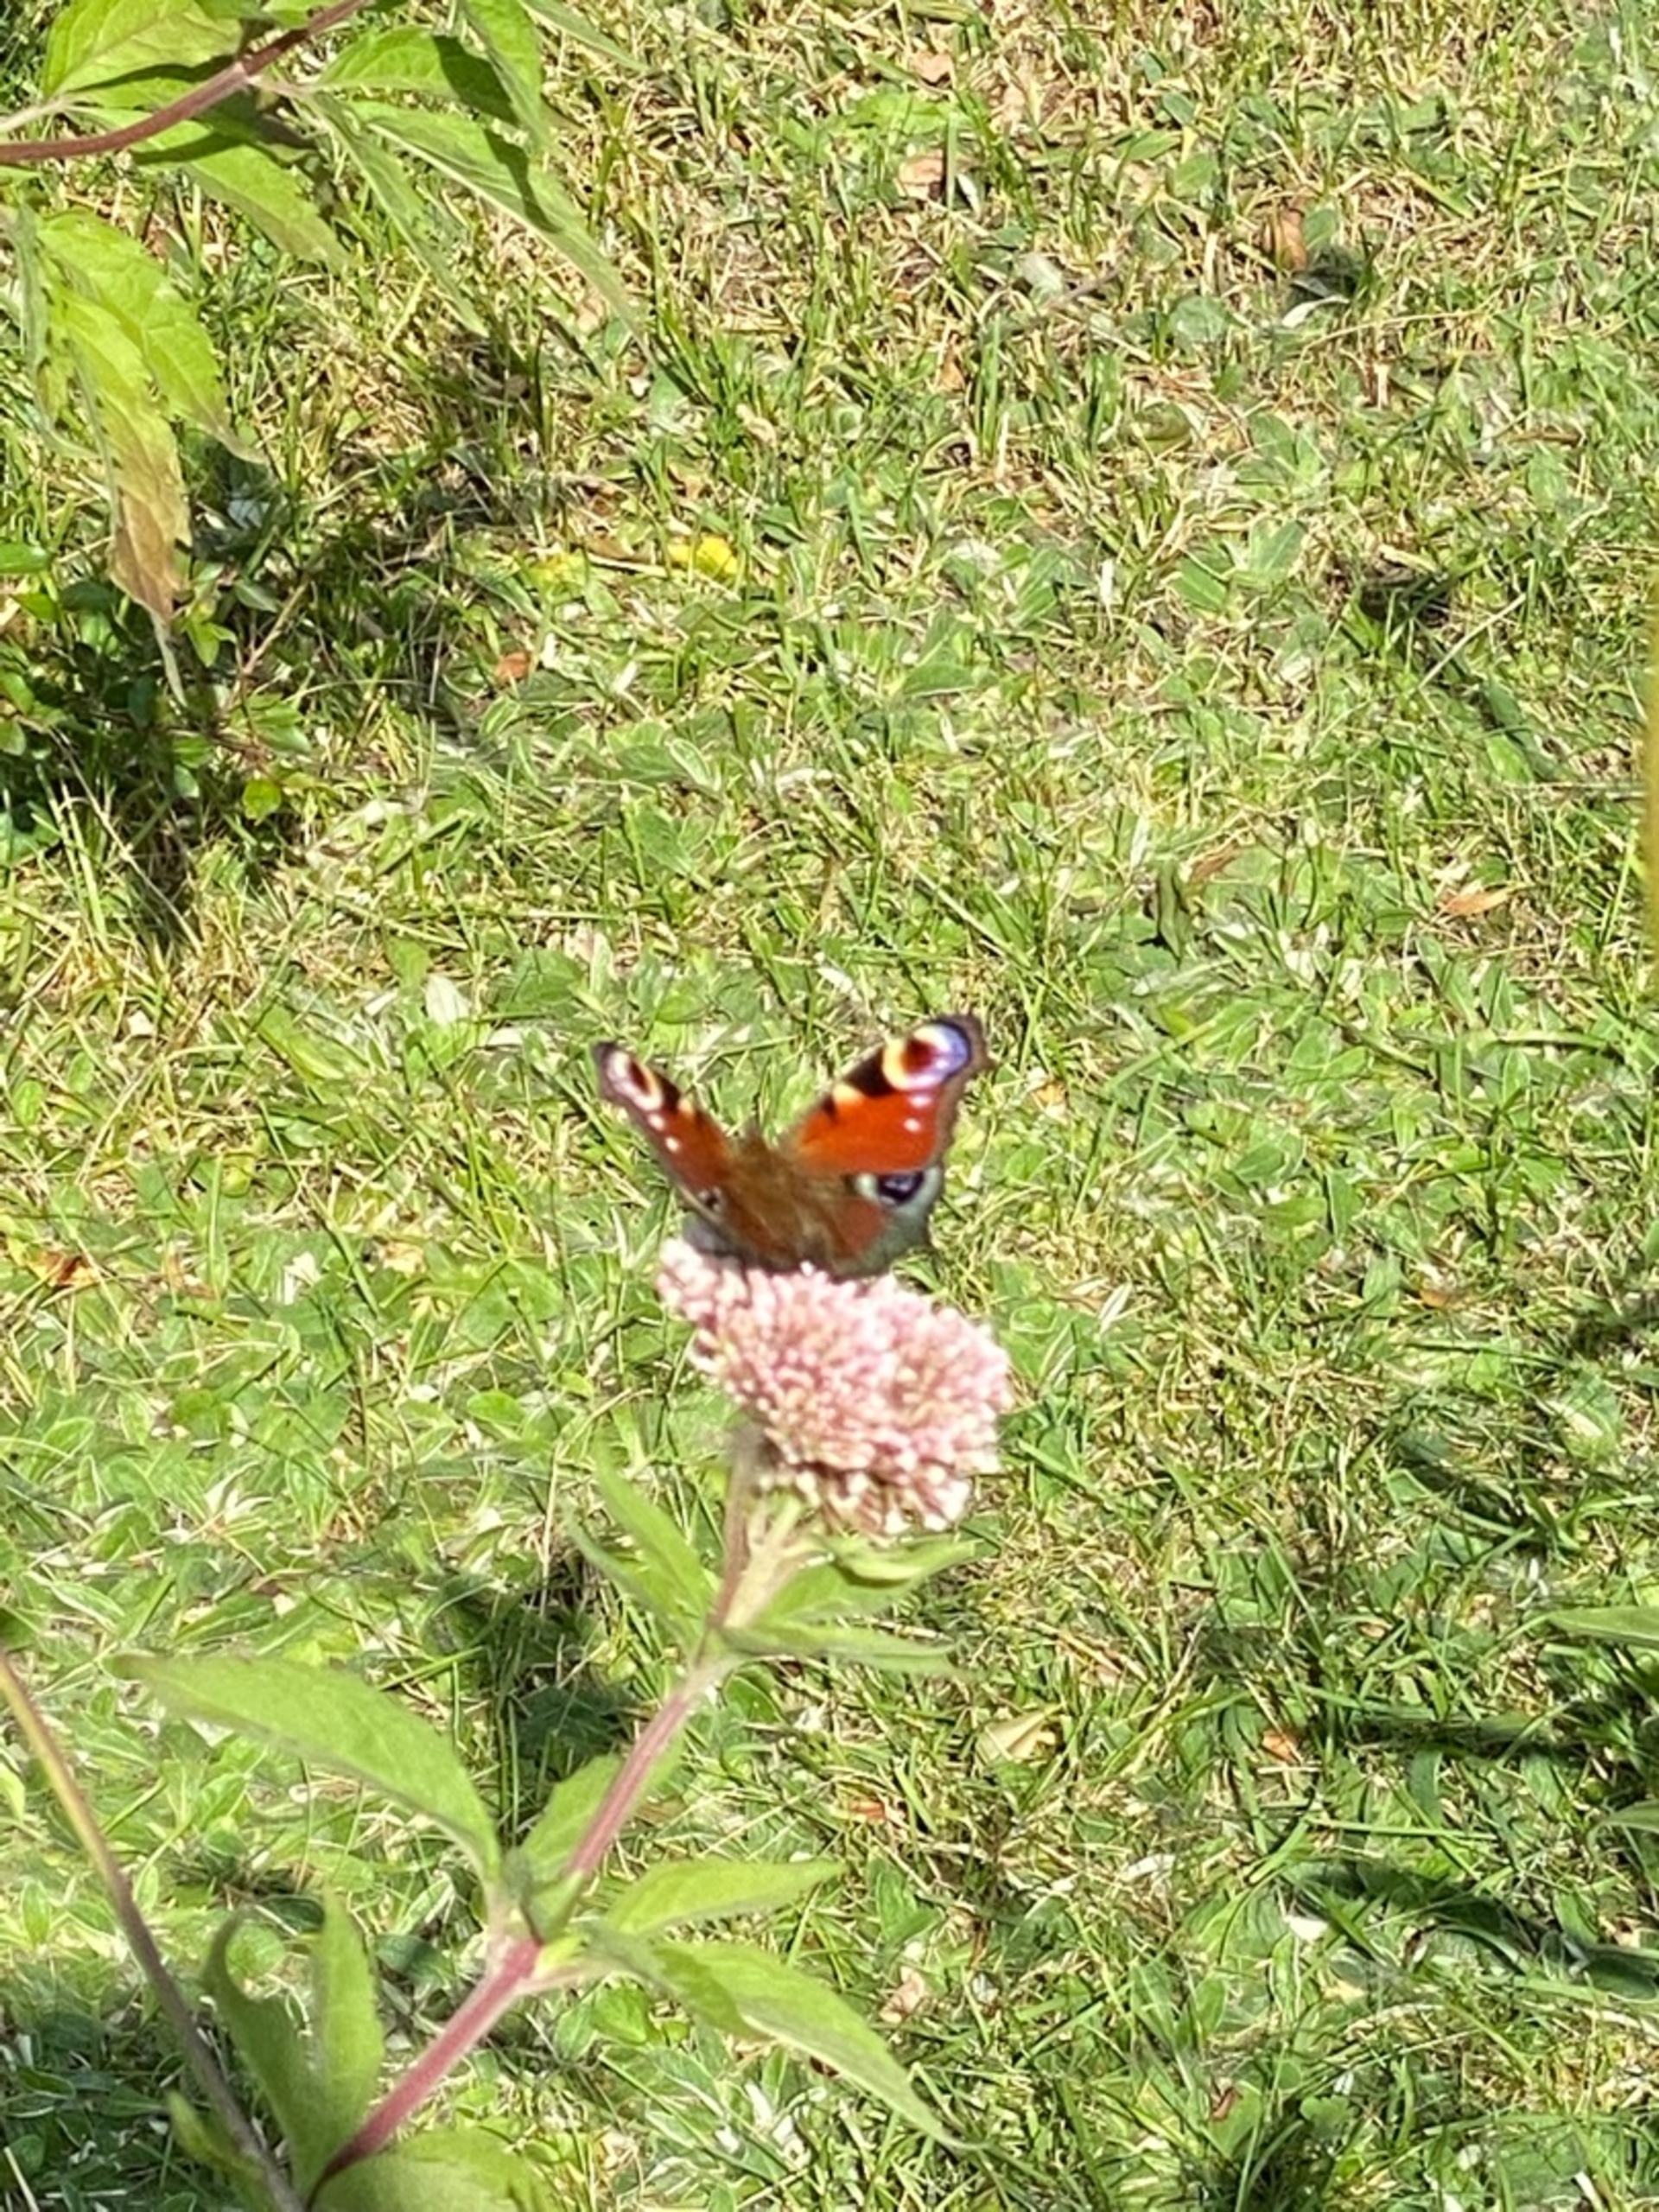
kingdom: Animalia
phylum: Arthropoda
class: Insecta
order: Lepidoptera
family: Nymphalidae
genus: Aglais
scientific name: Aglais io
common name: Dagpåfugleøje
